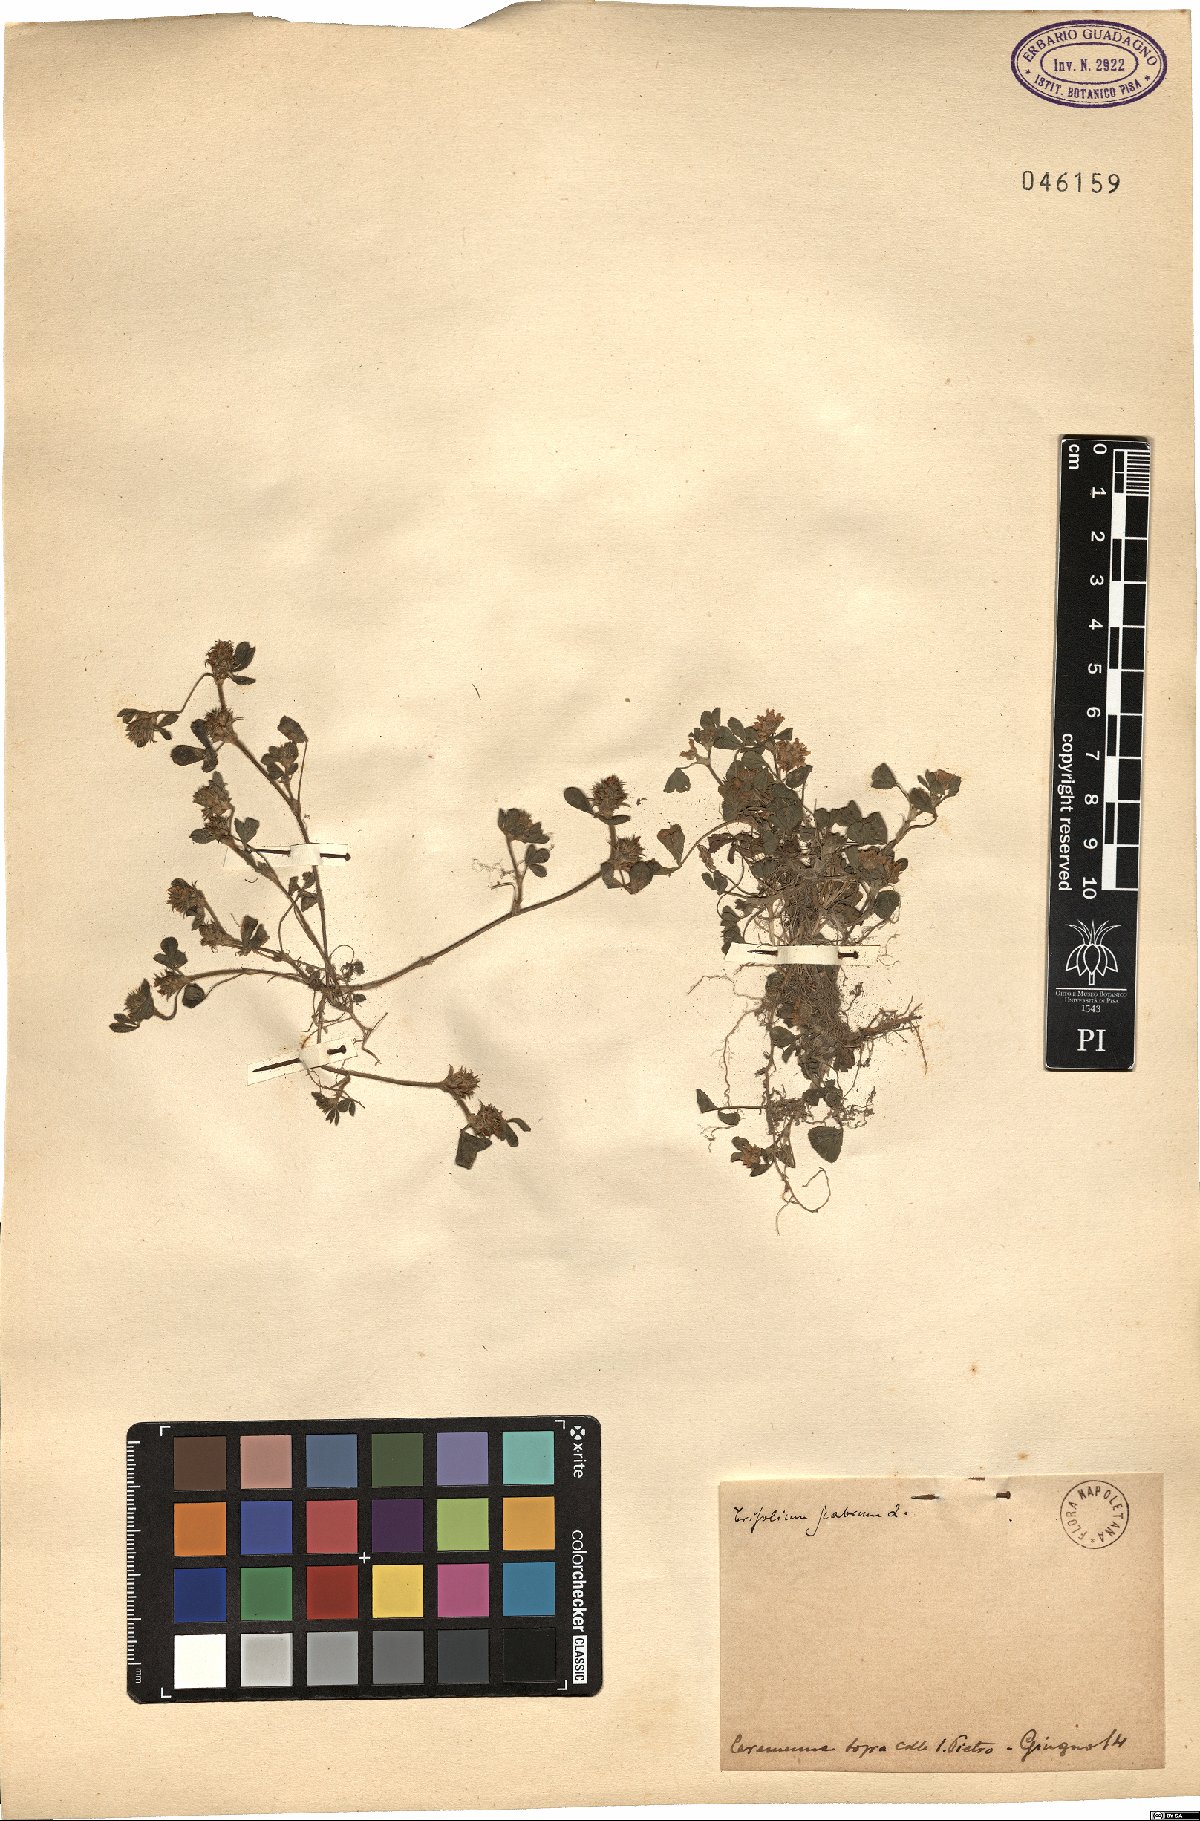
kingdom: Plantae
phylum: Tracheophyta
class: Magnoliopsida
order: Fabales
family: Fabaceae
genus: Trifolium
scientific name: Trifolium scabrum
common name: Rough clover
